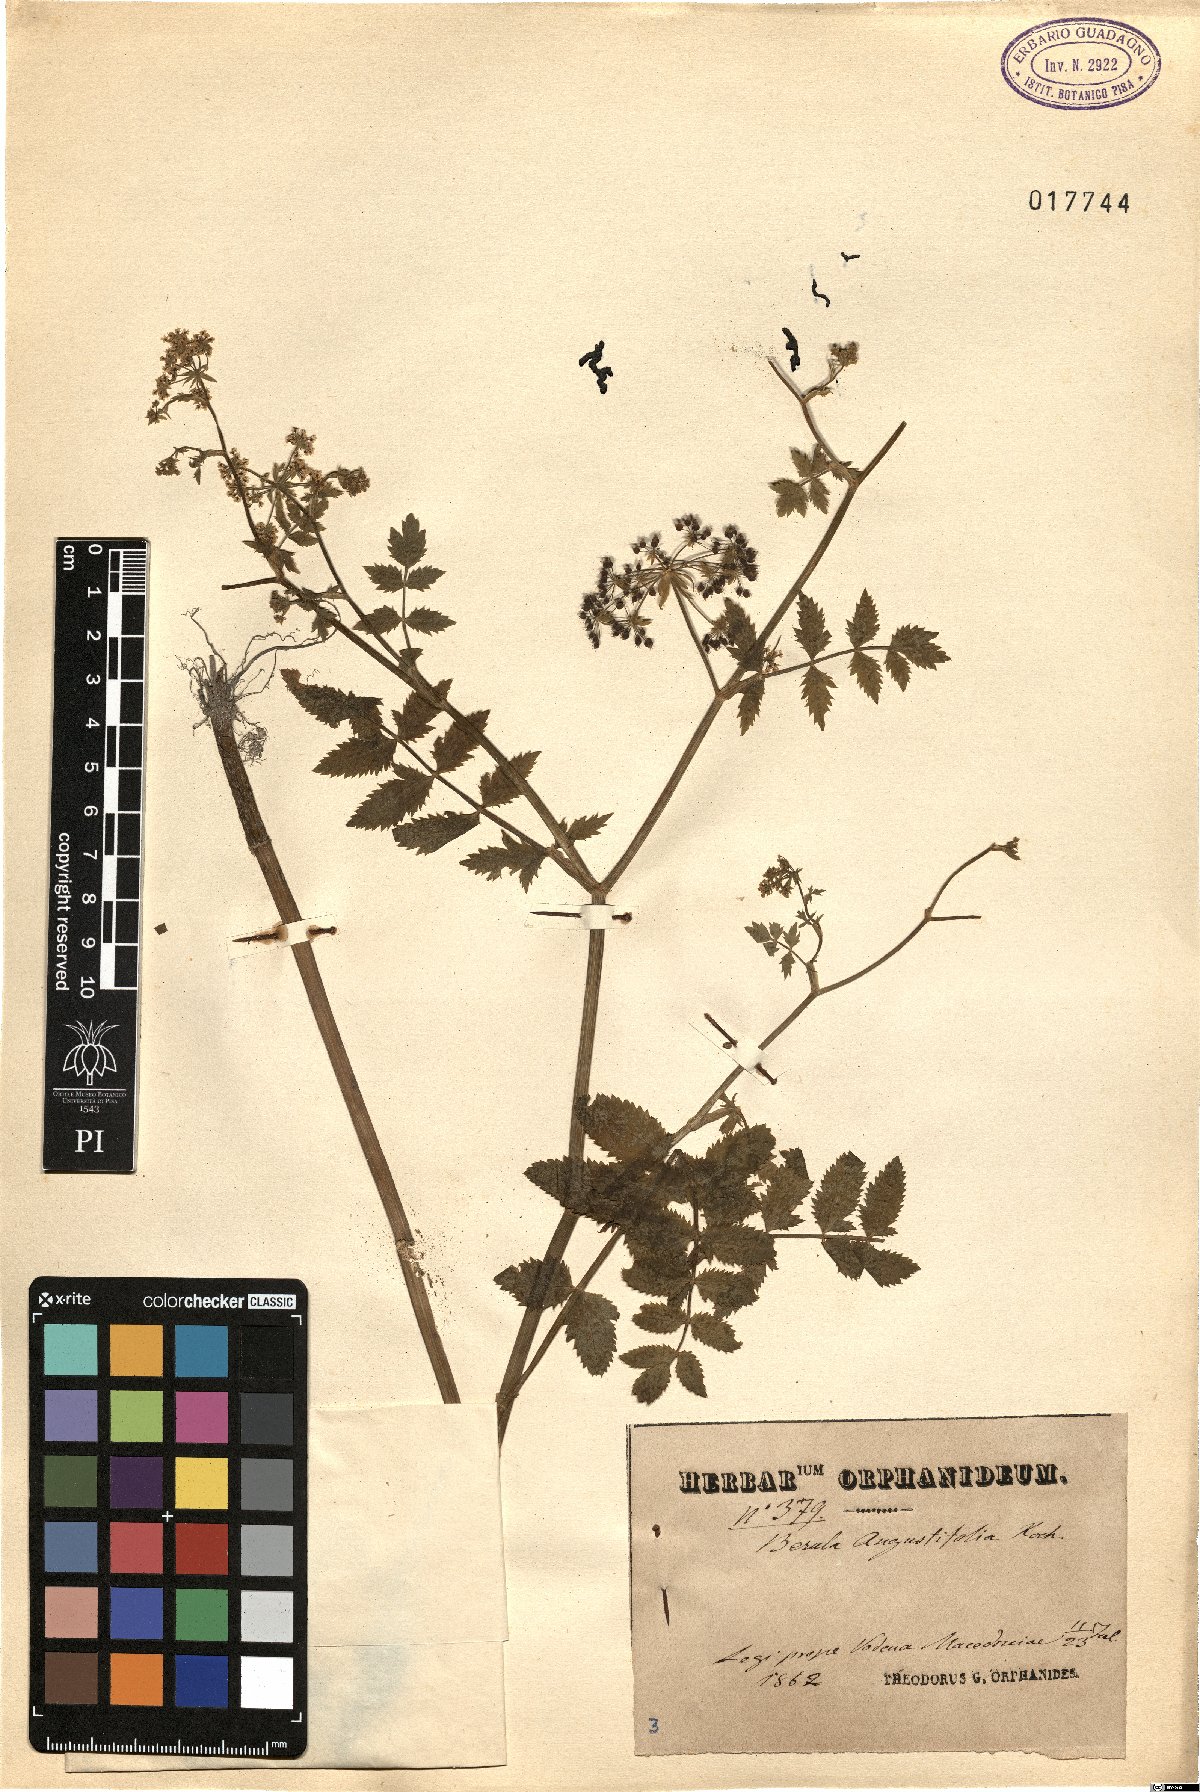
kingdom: Plantae
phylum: Tracheophyta
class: Magnoliopsida
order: Apiales
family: Apiaceae
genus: Berula
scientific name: Berula erecta
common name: Lesser water-parsnip
